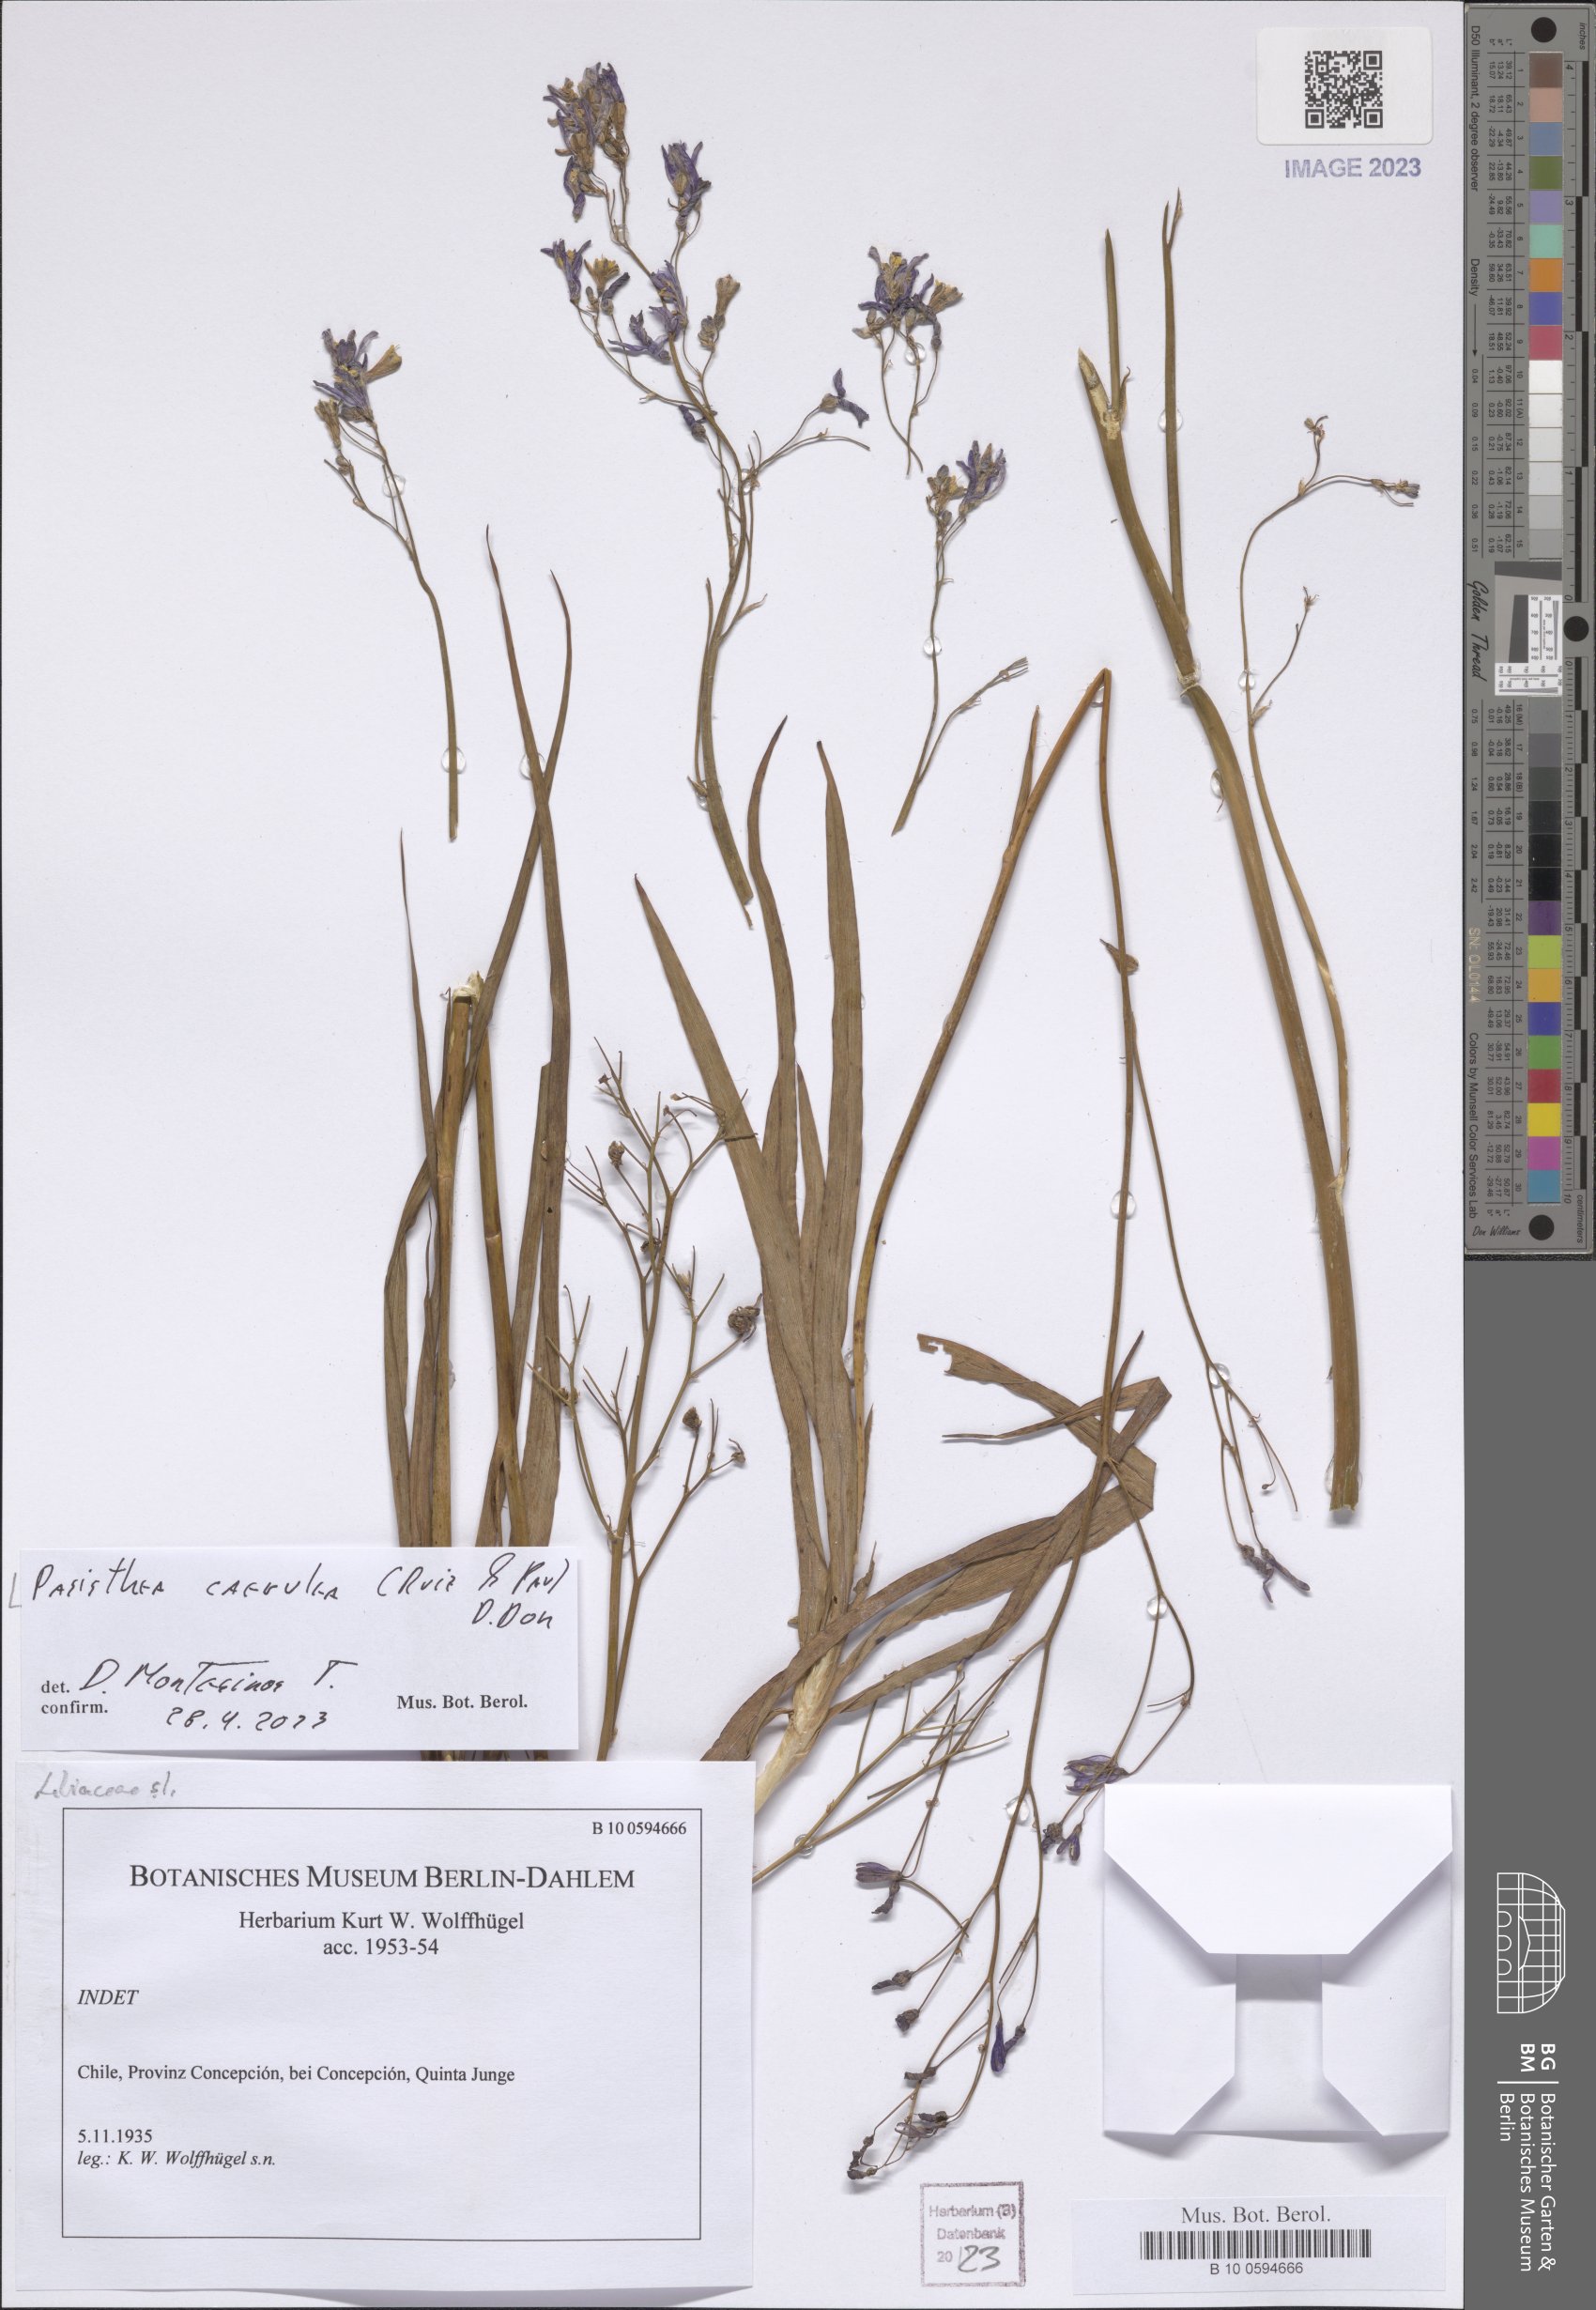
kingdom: Plantae
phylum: Tracheophyta
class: Liliopsida
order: Asparagales
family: Asphodelaceae
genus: Pasithea
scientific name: Pasithea caerulea
